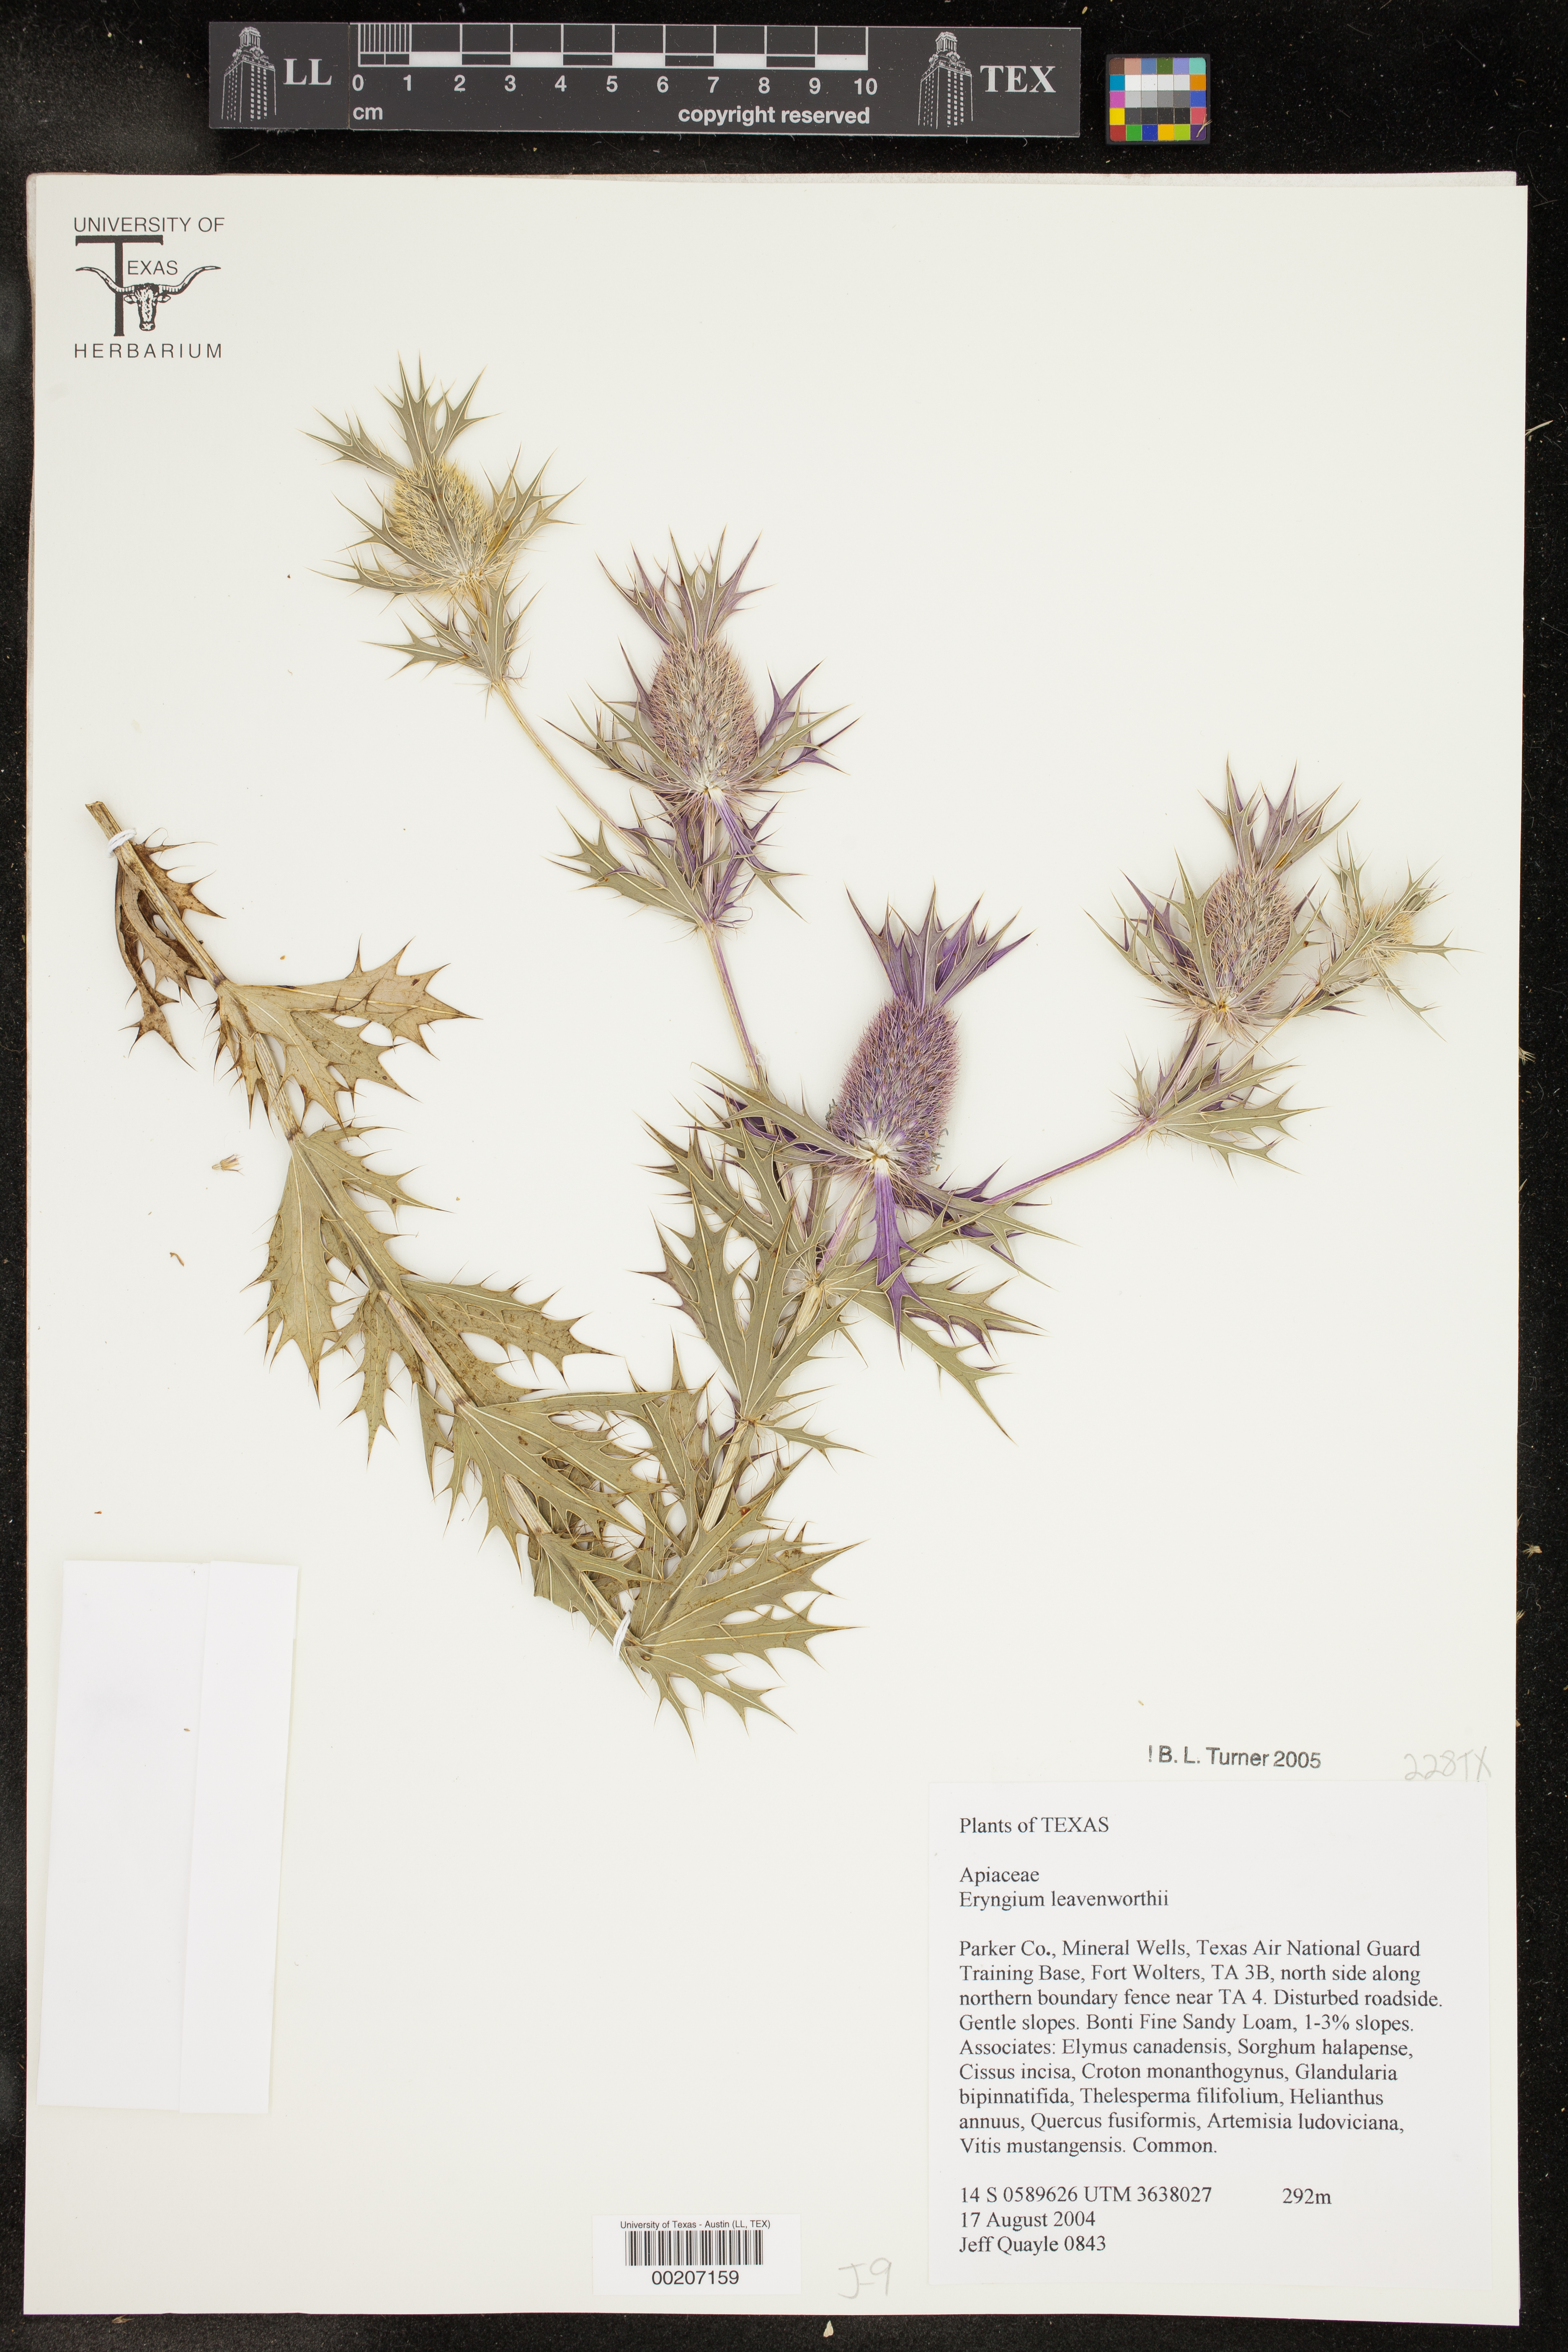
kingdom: Plantae
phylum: Tracheophyta
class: Magnoliopsida
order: Apiales
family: Apiaceae
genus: Eryngium
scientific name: Eryngium leavenworthii
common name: Leavenworth's eryngo
